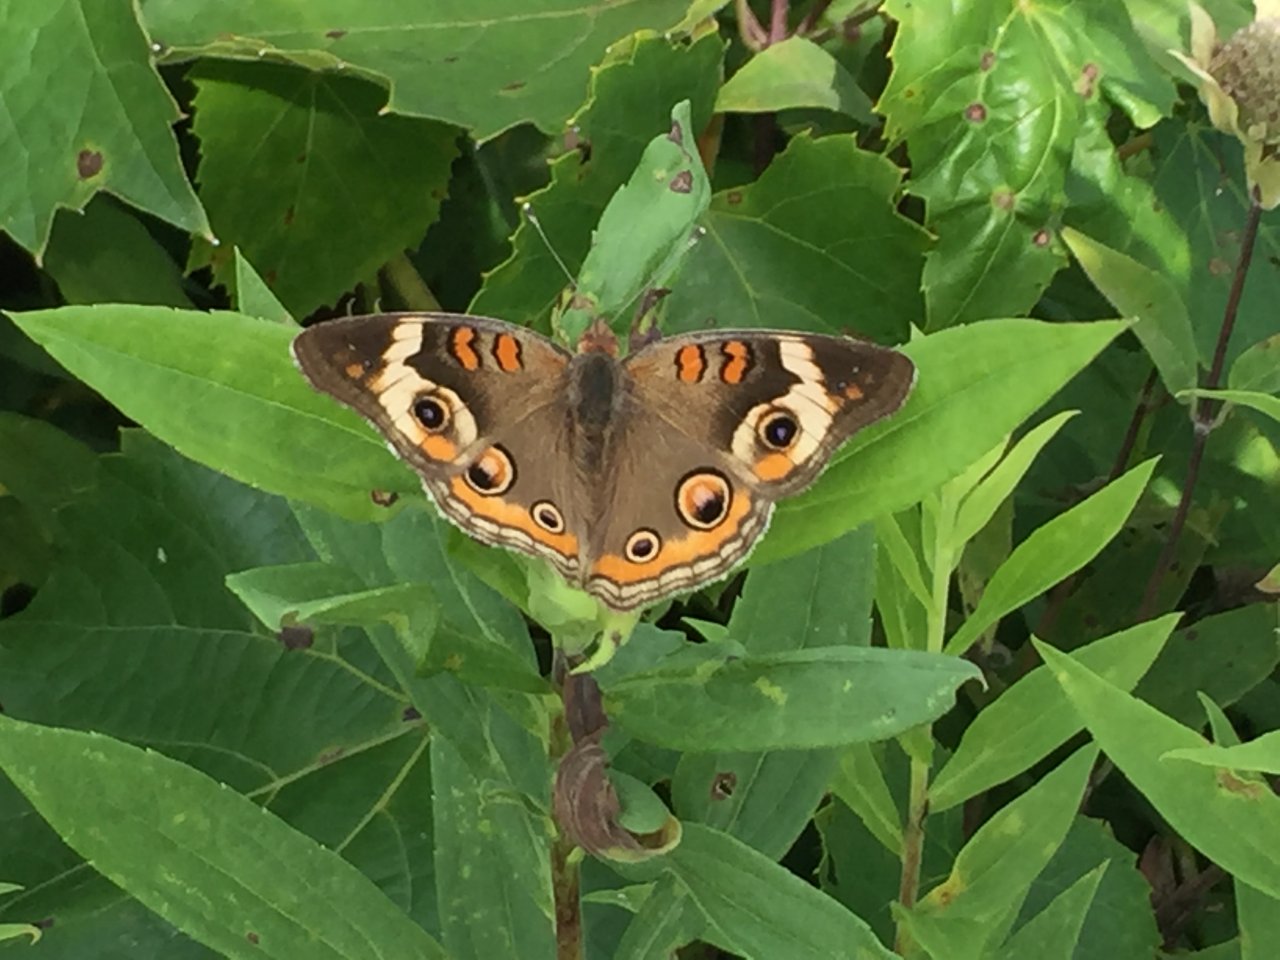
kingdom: Animalia
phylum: Arthropoda
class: Insecta
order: Lepidoptera
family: Nymphalidae
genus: Junonia
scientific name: Junonia coenia
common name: Common Buckeye
